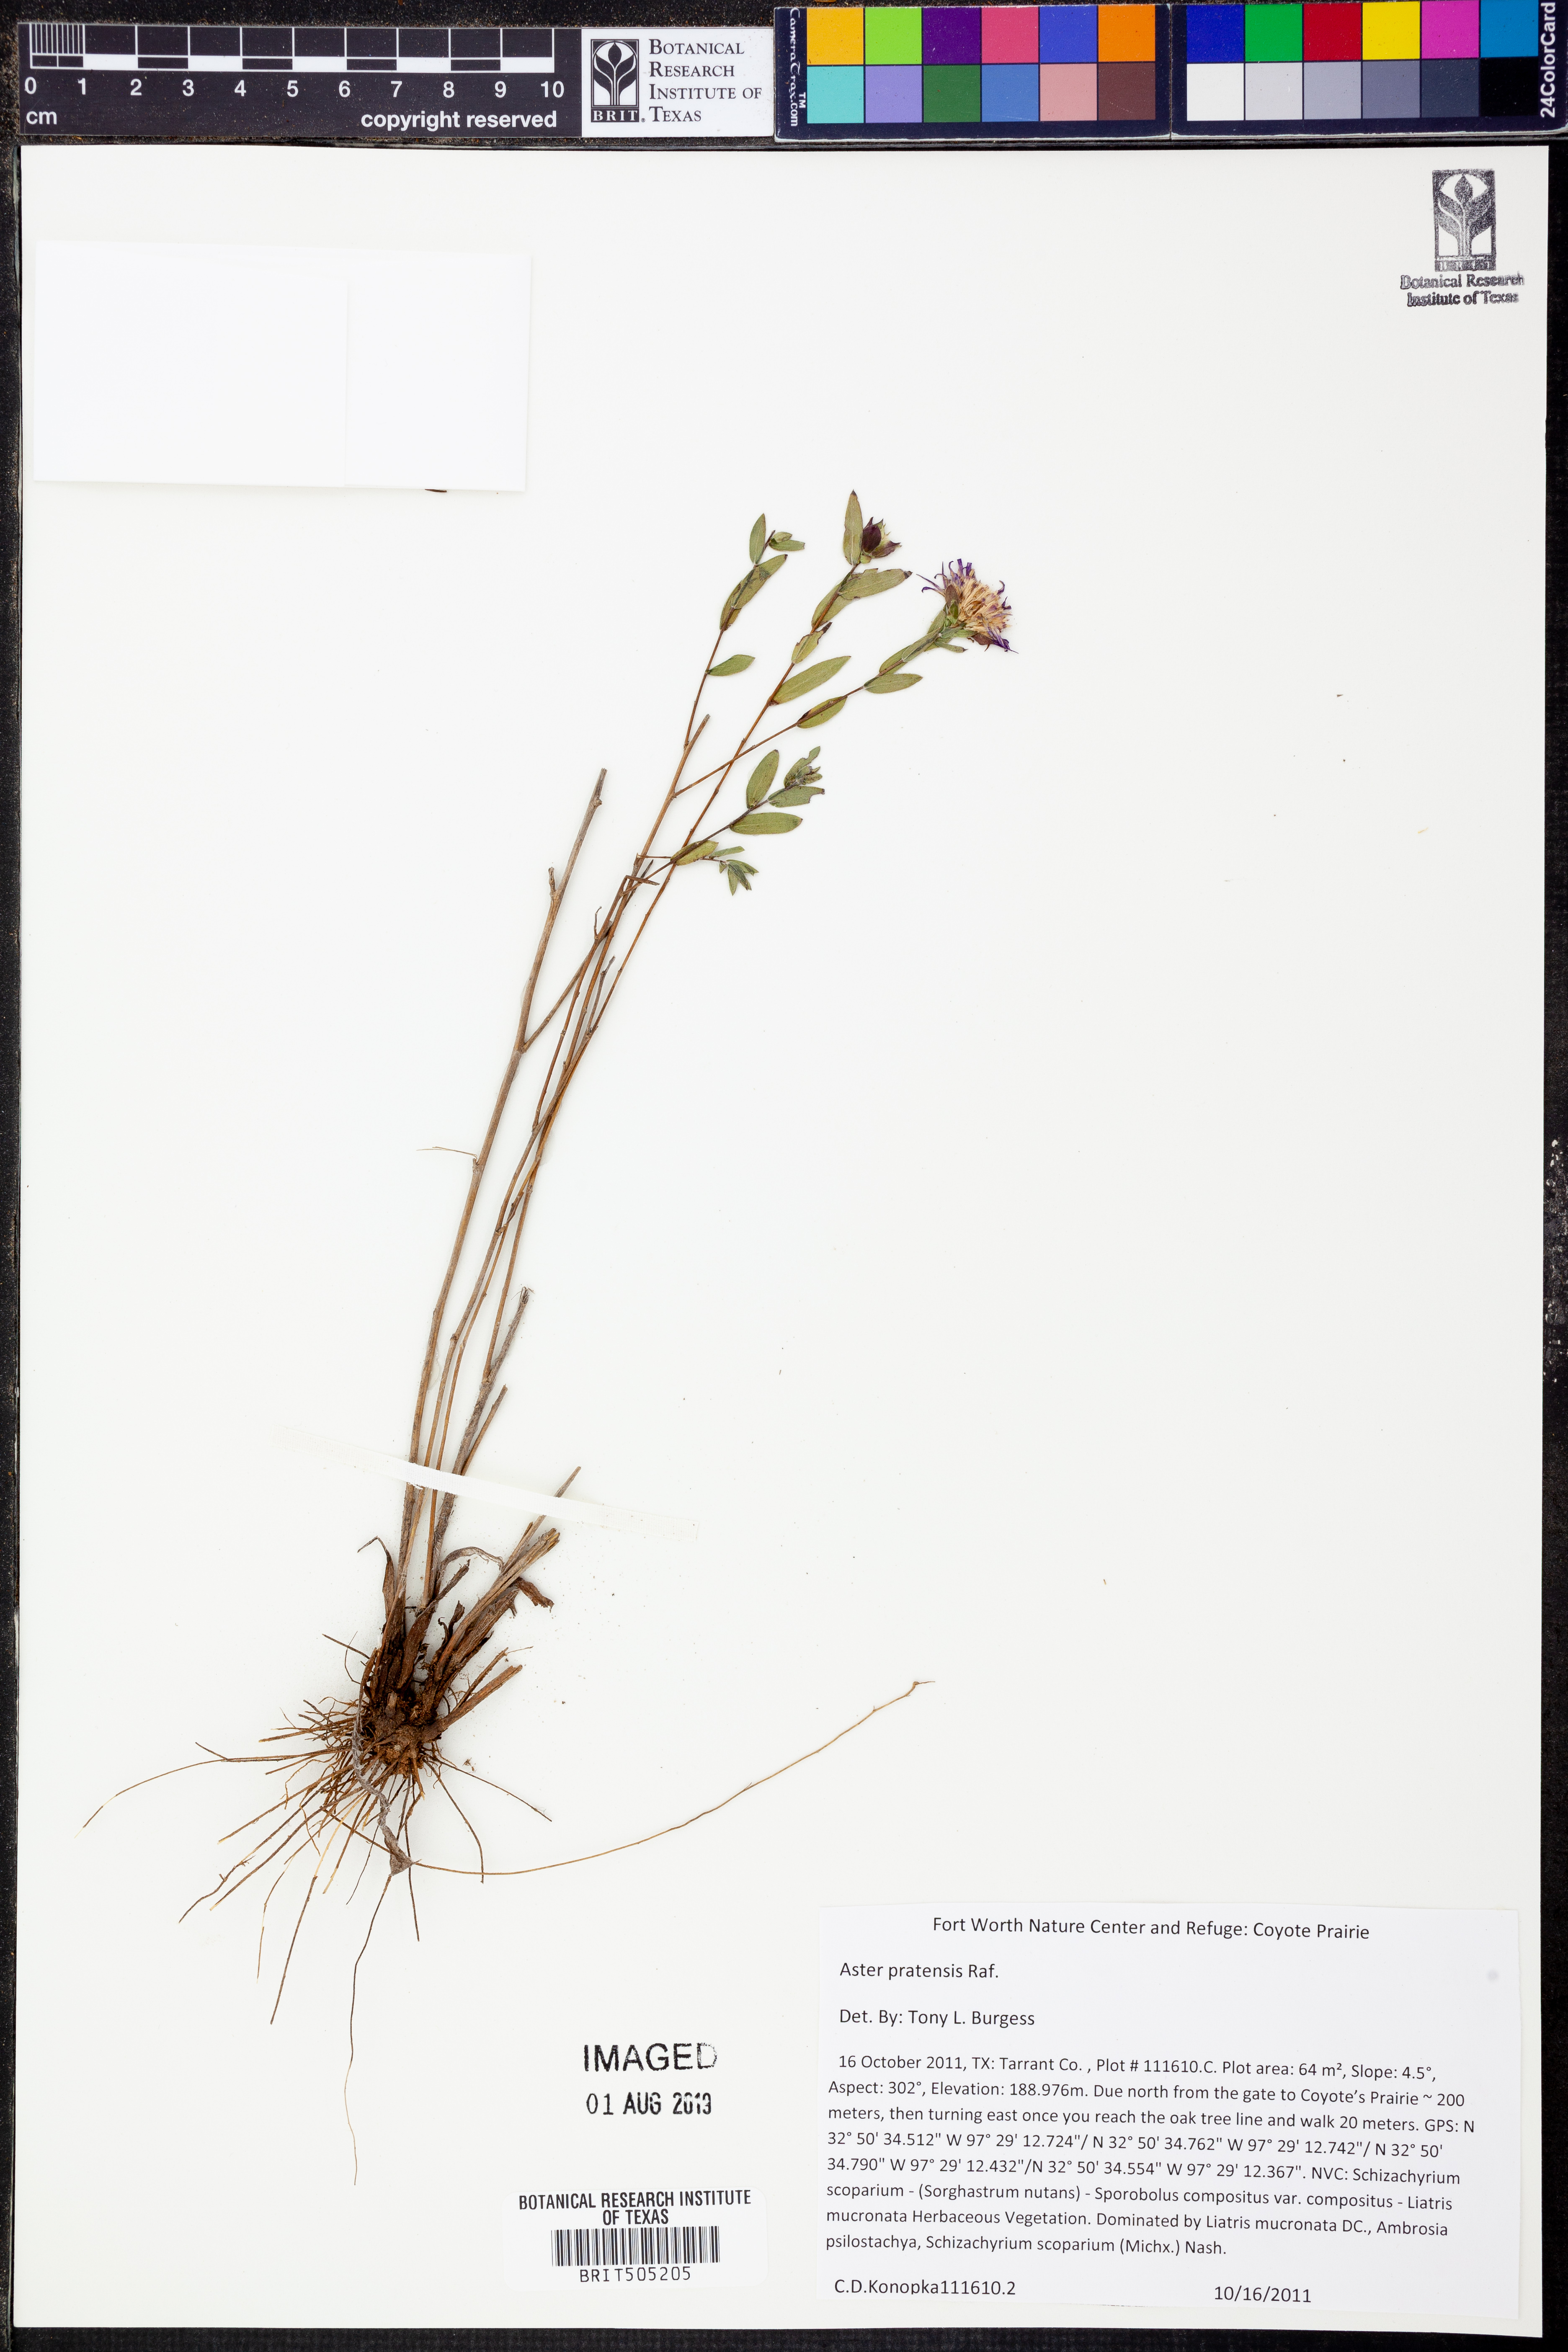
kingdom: Plantae
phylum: Tracheophyta
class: Magnoliopsida
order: Asterales
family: Asteraceae
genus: Symphyotrichum
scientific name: Symphyotrichum pratense
